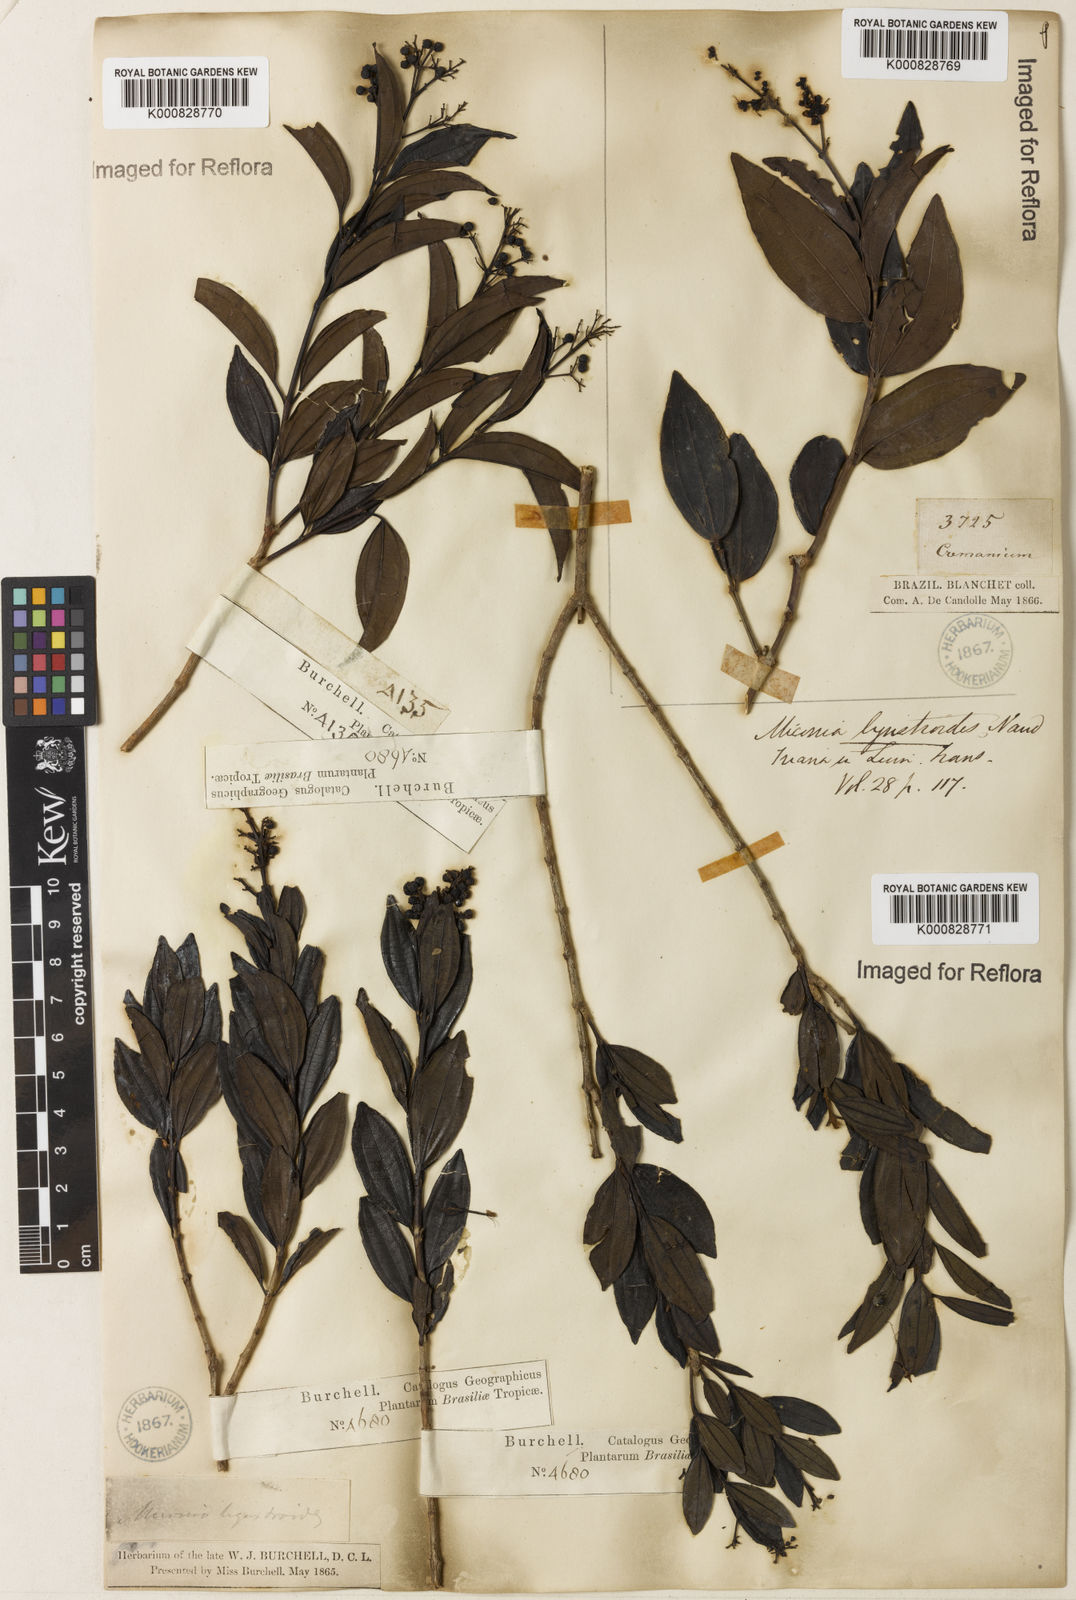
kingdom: Plantae
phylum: Tracheophyta
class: Magnoliopsida
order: Myrtales
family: Melastomataceae
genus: Miconia
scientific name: Miconia ligustroides
